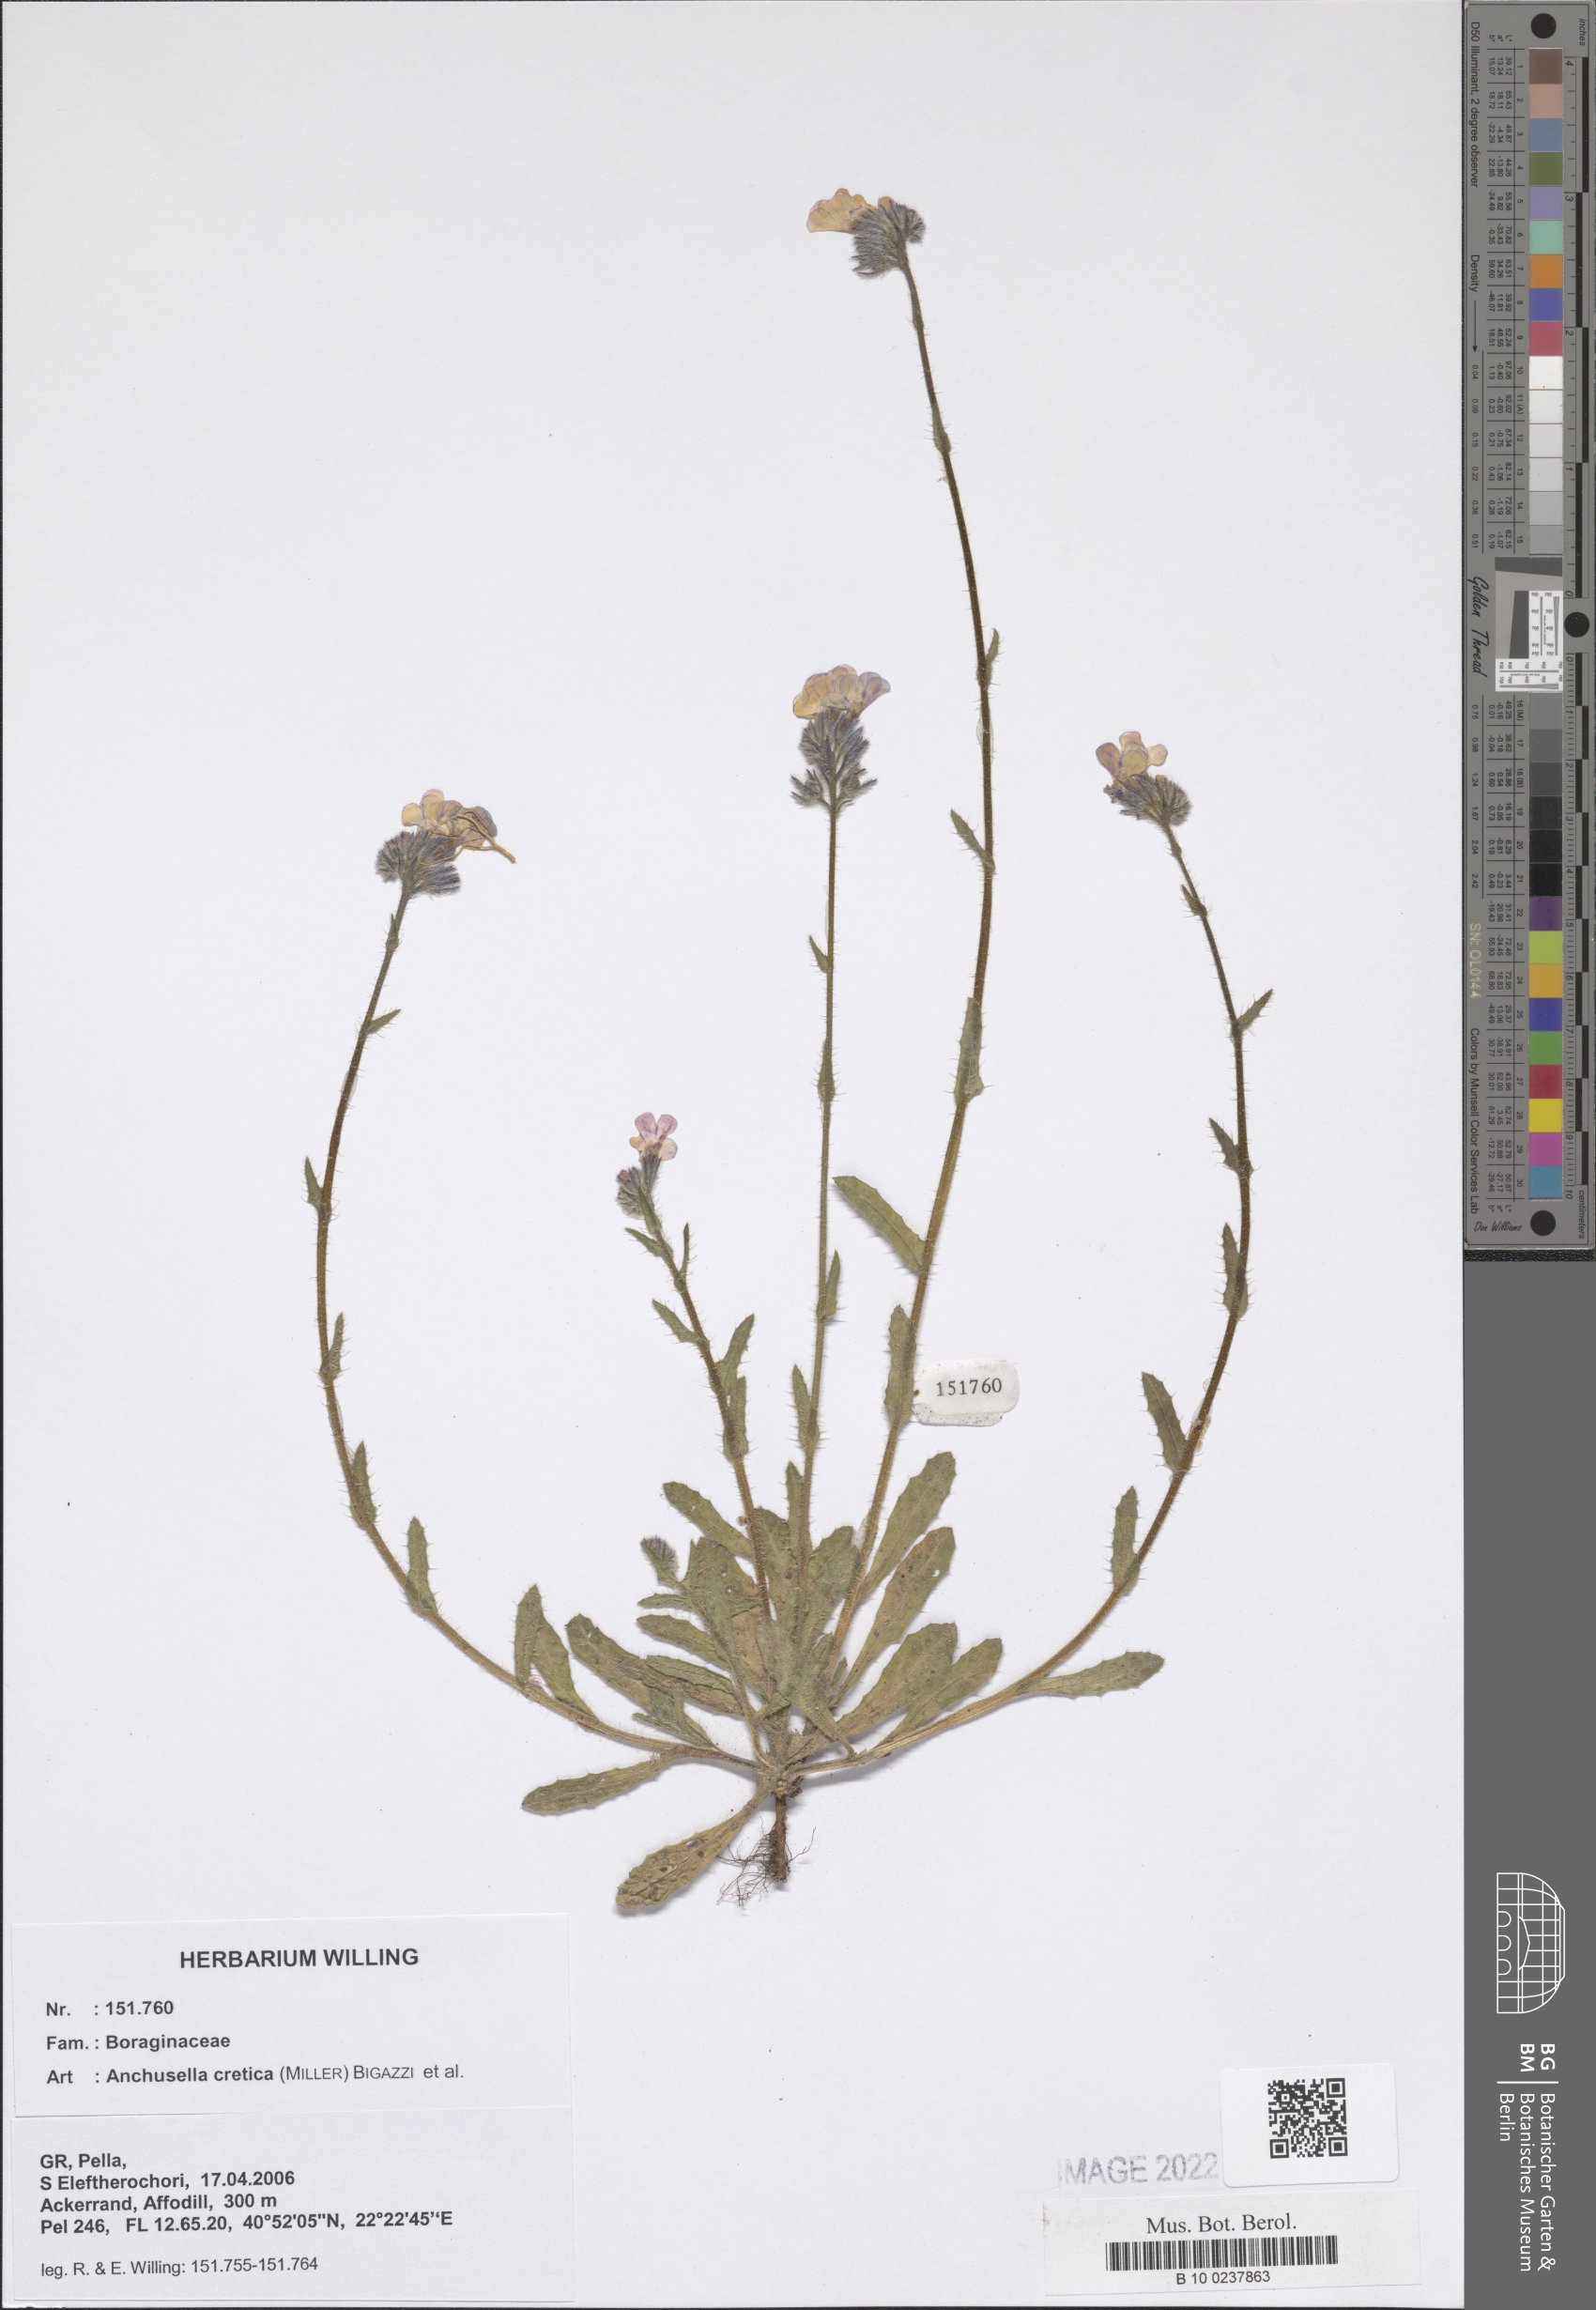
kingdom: Plantae
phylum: Tracheophyta
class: Magnoliopsida
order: Boraginales
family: Boraginaceae
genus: Lycopsis
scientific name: Lycopsis arvensis
